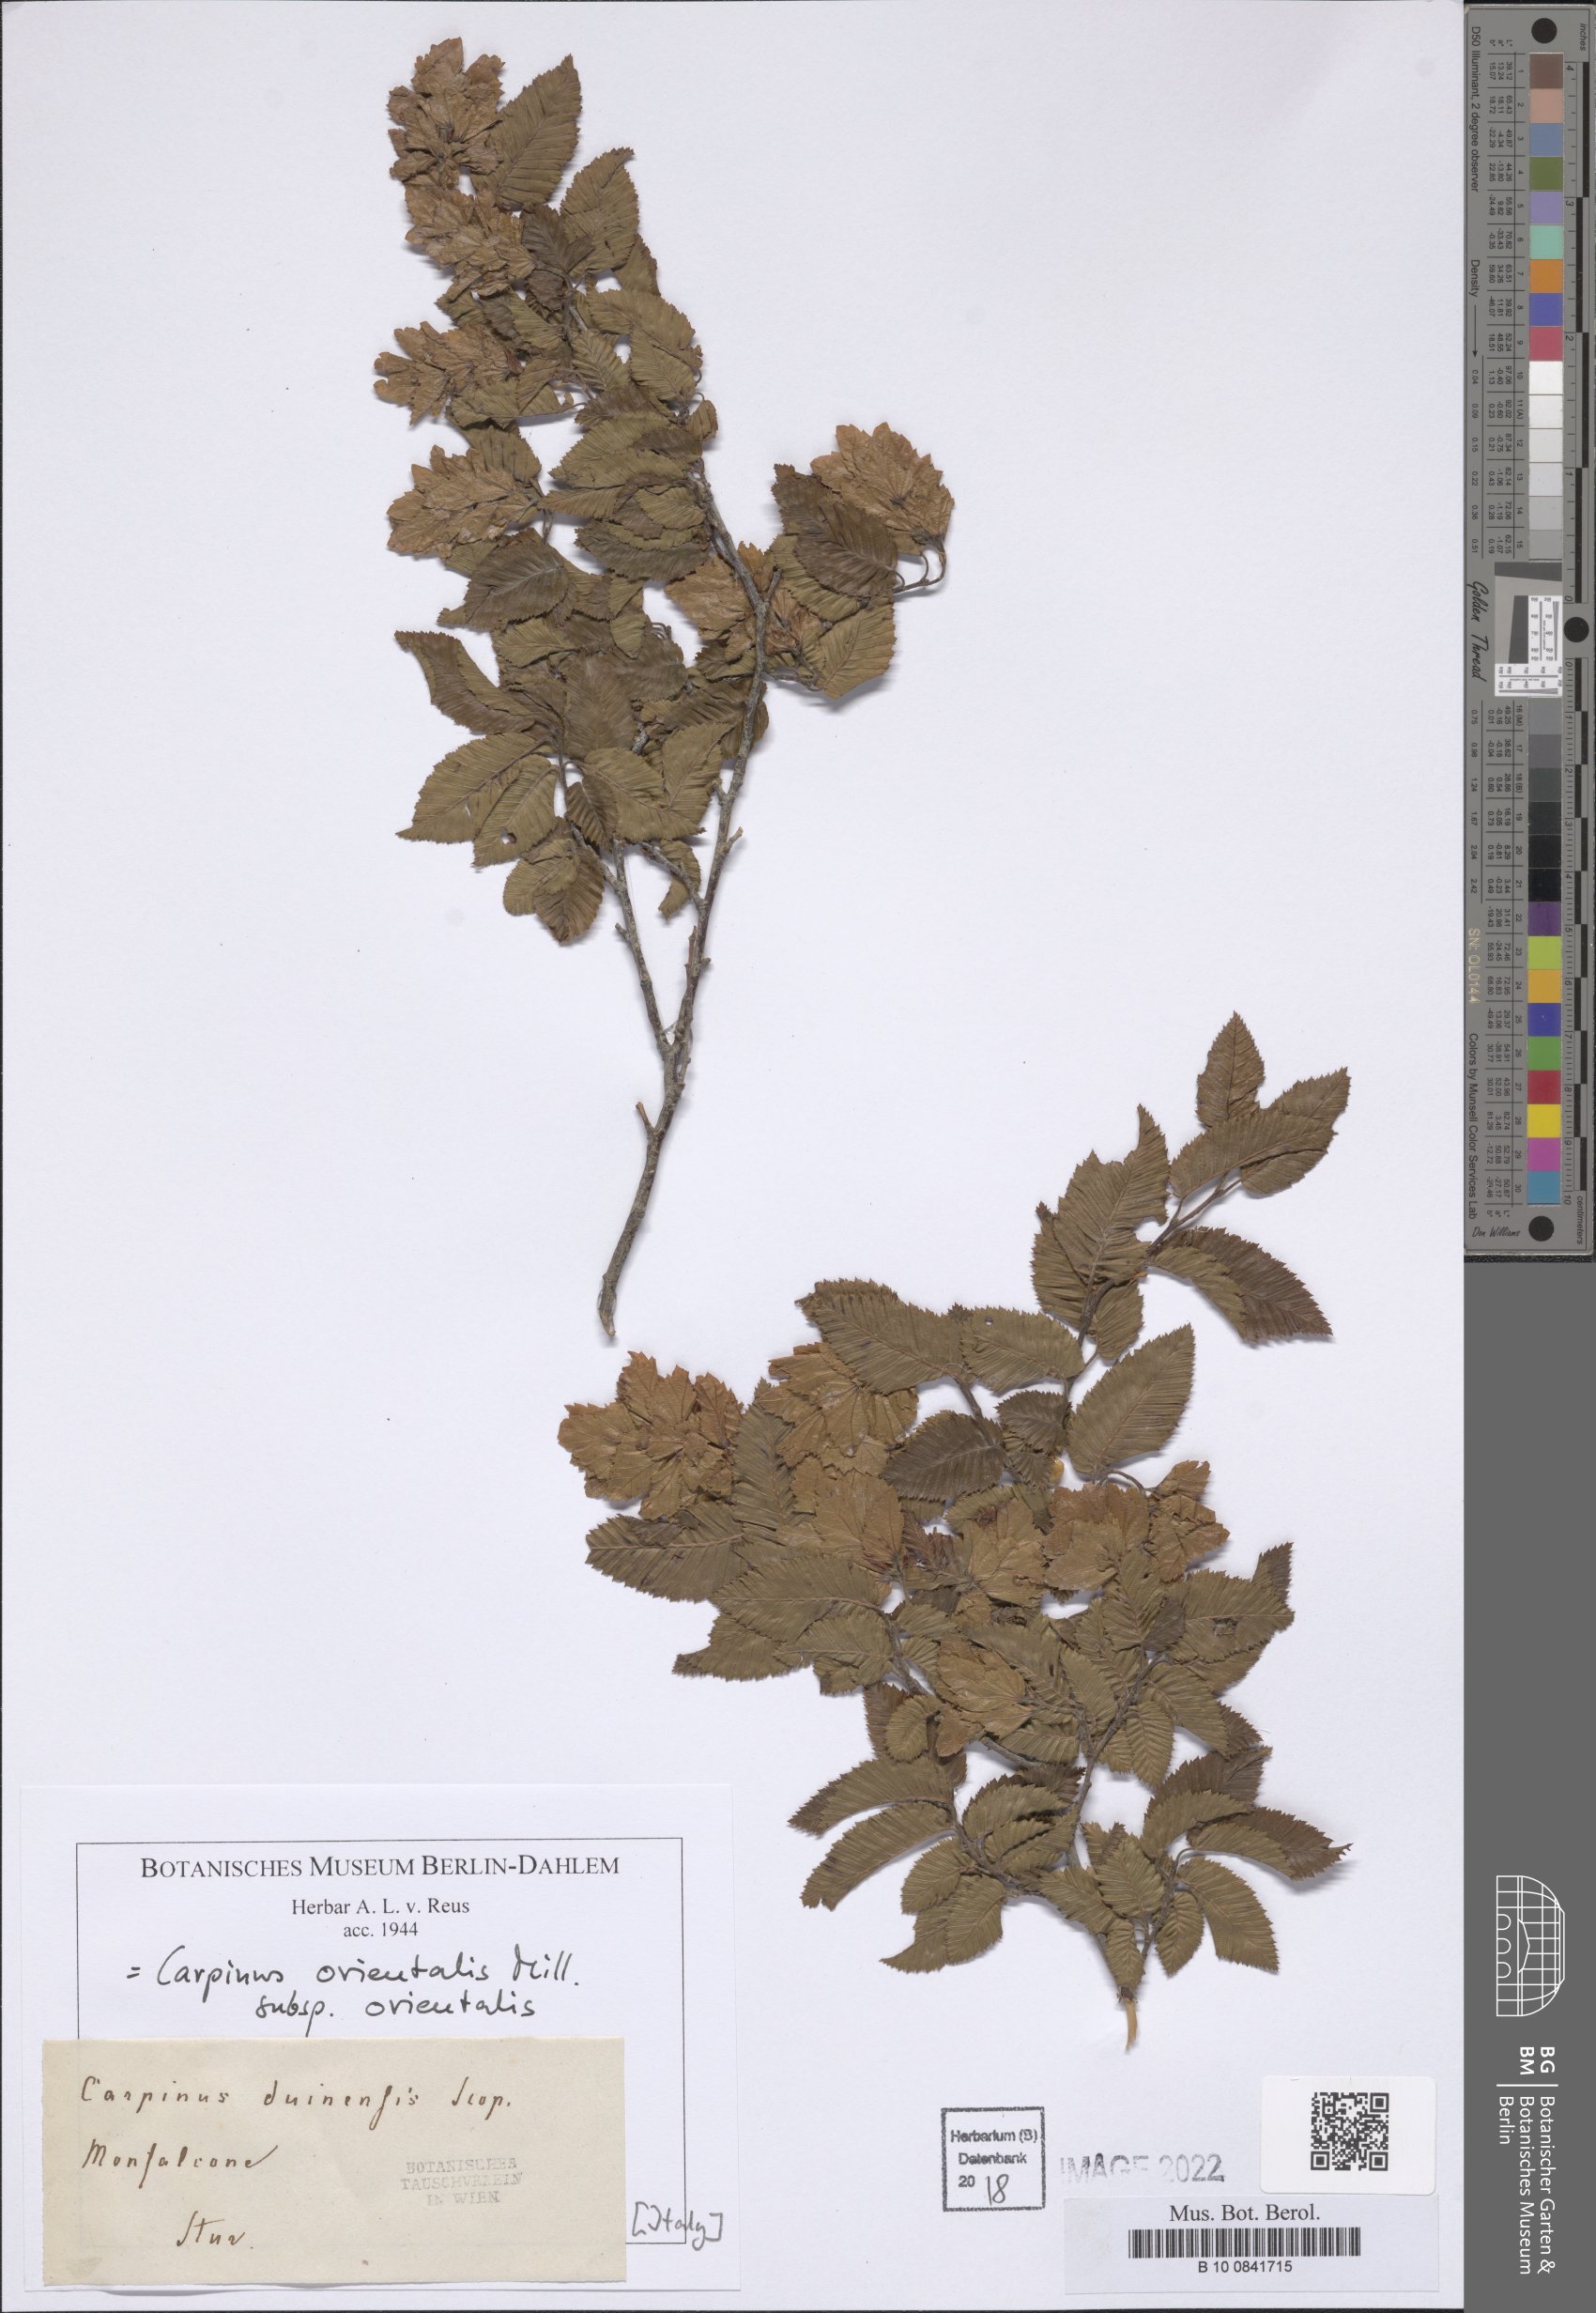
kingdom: Plantae
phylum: Tracheophyta
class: Magnoliopsida
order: Fagales
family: Betulaceae
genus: Carpinus
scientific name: Carpinus orientalis
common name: Eastern hornbeam
